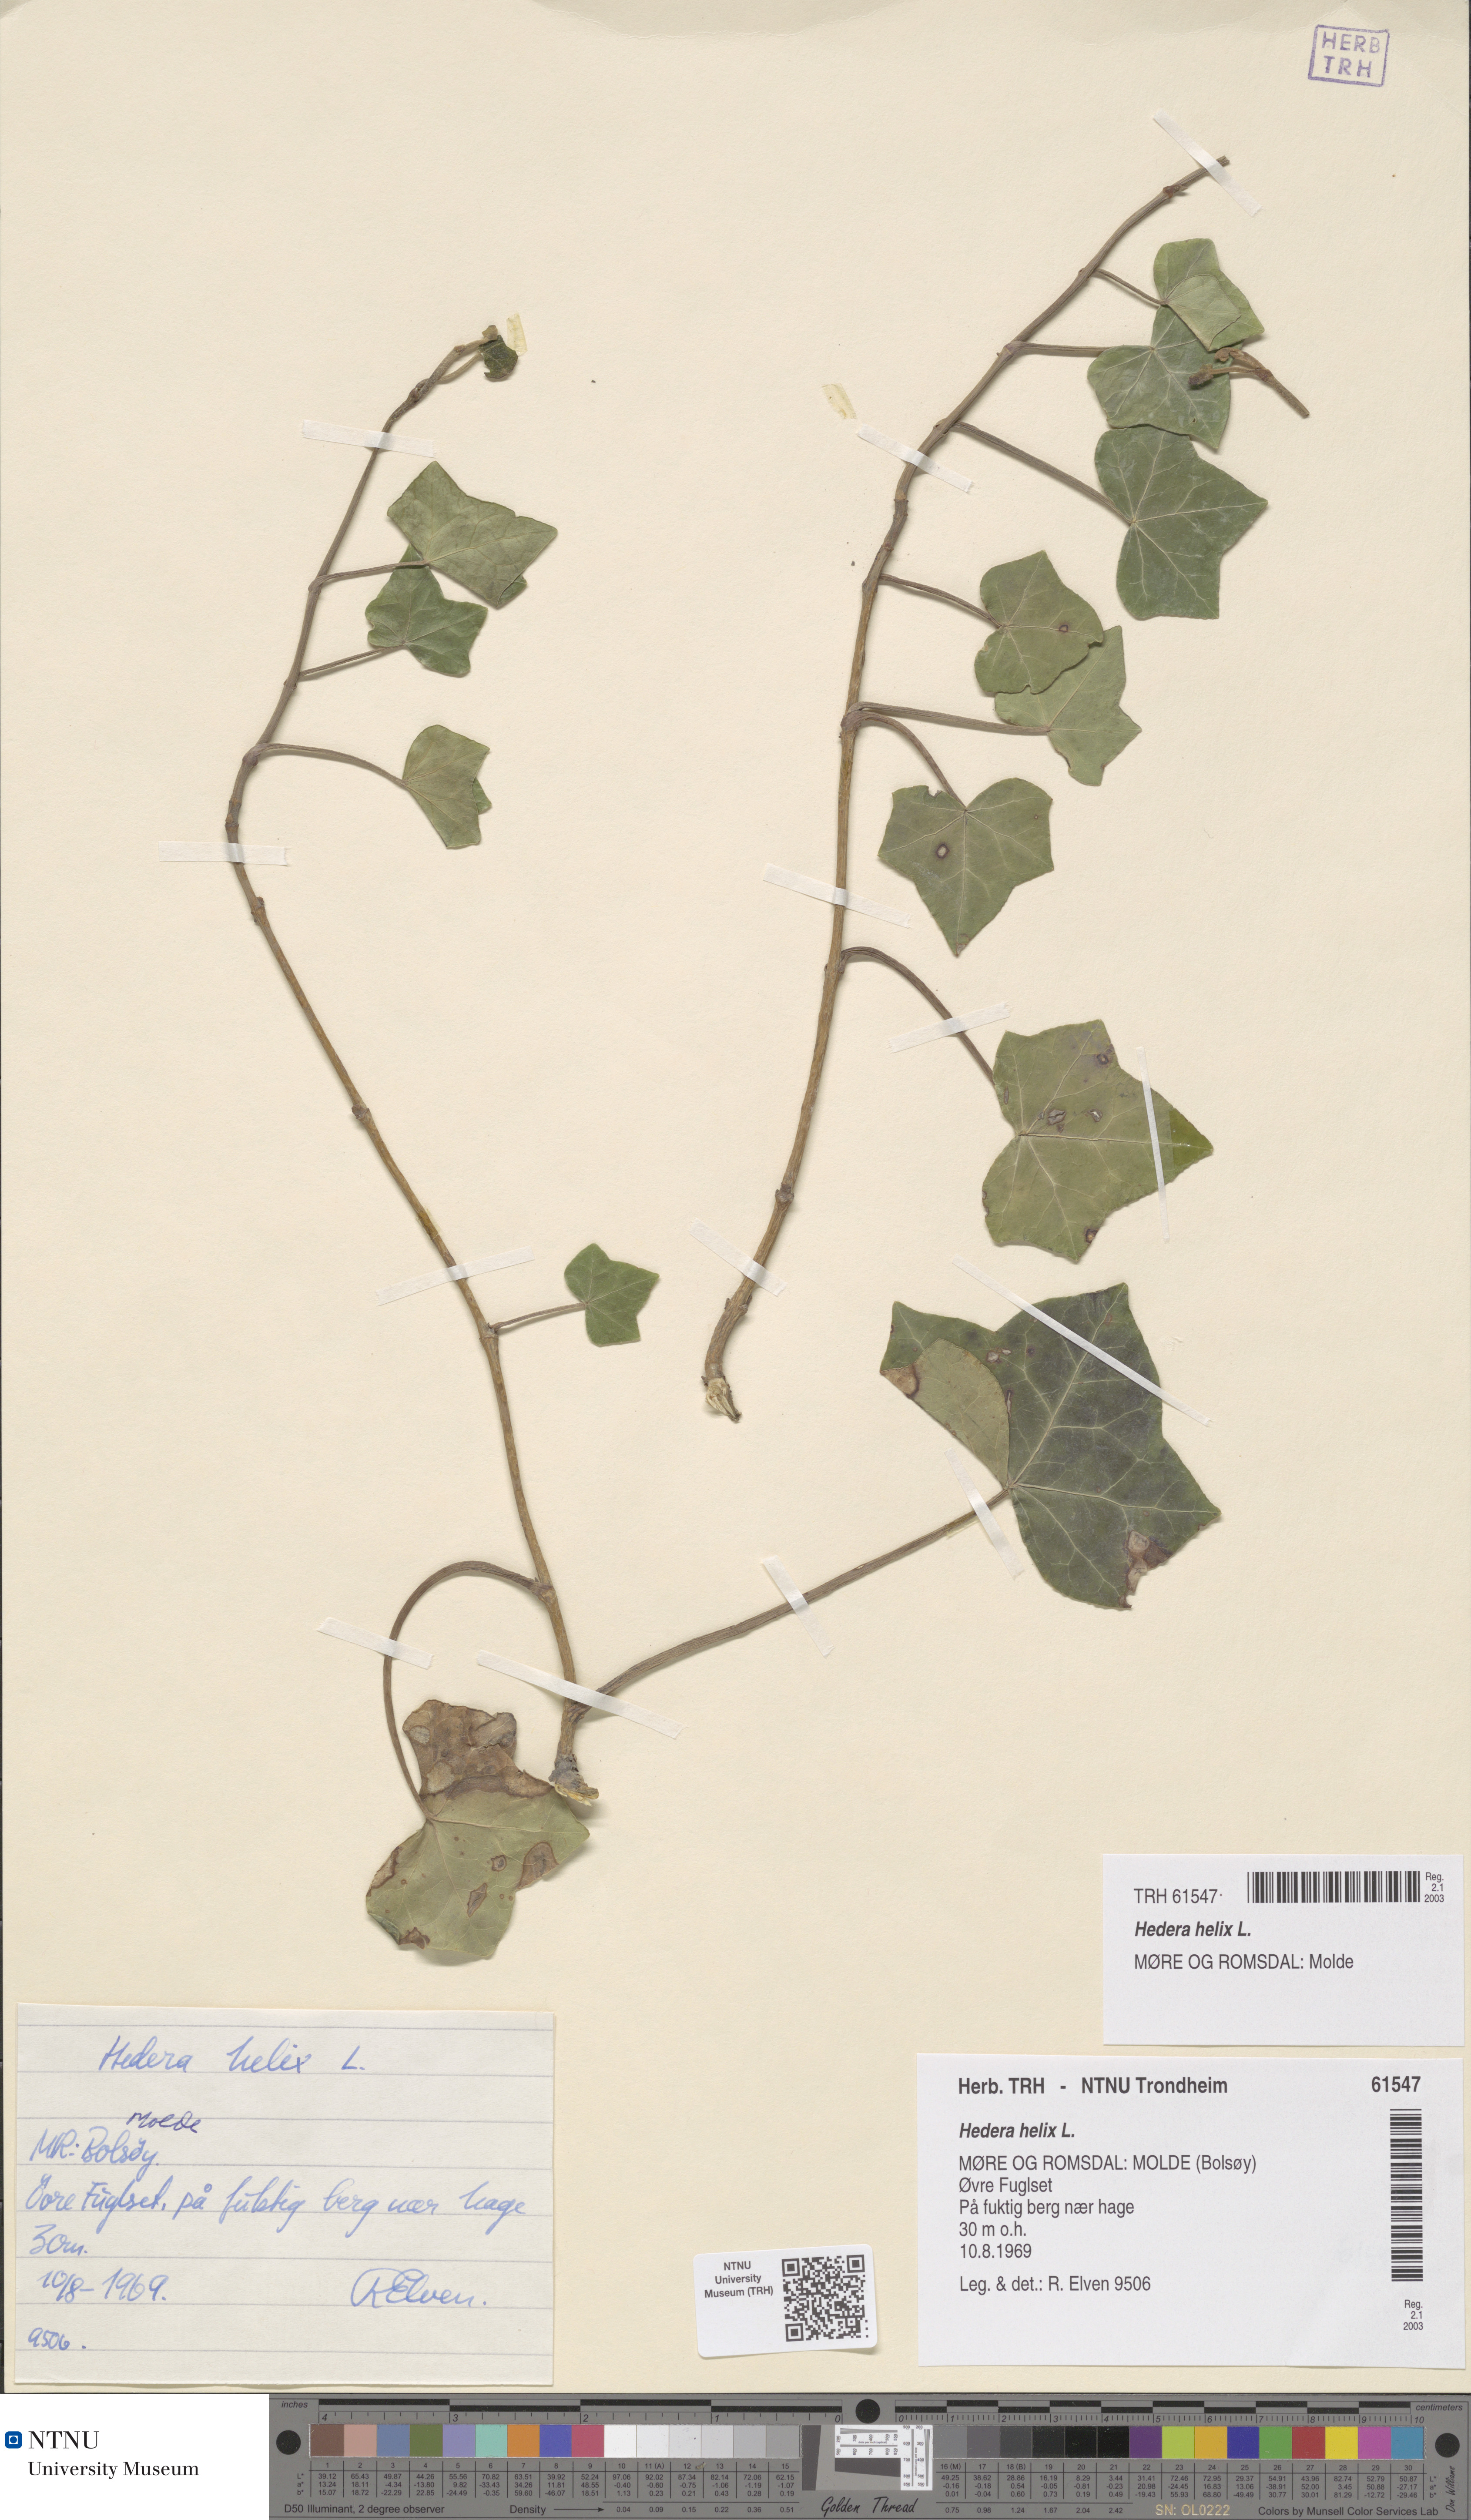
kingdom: Plantae
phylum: Tracheophyta
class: Magnoliopsida
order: Apiales
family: Araliaceae
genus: Hedera
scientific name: Hedera helix
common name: Ivy
